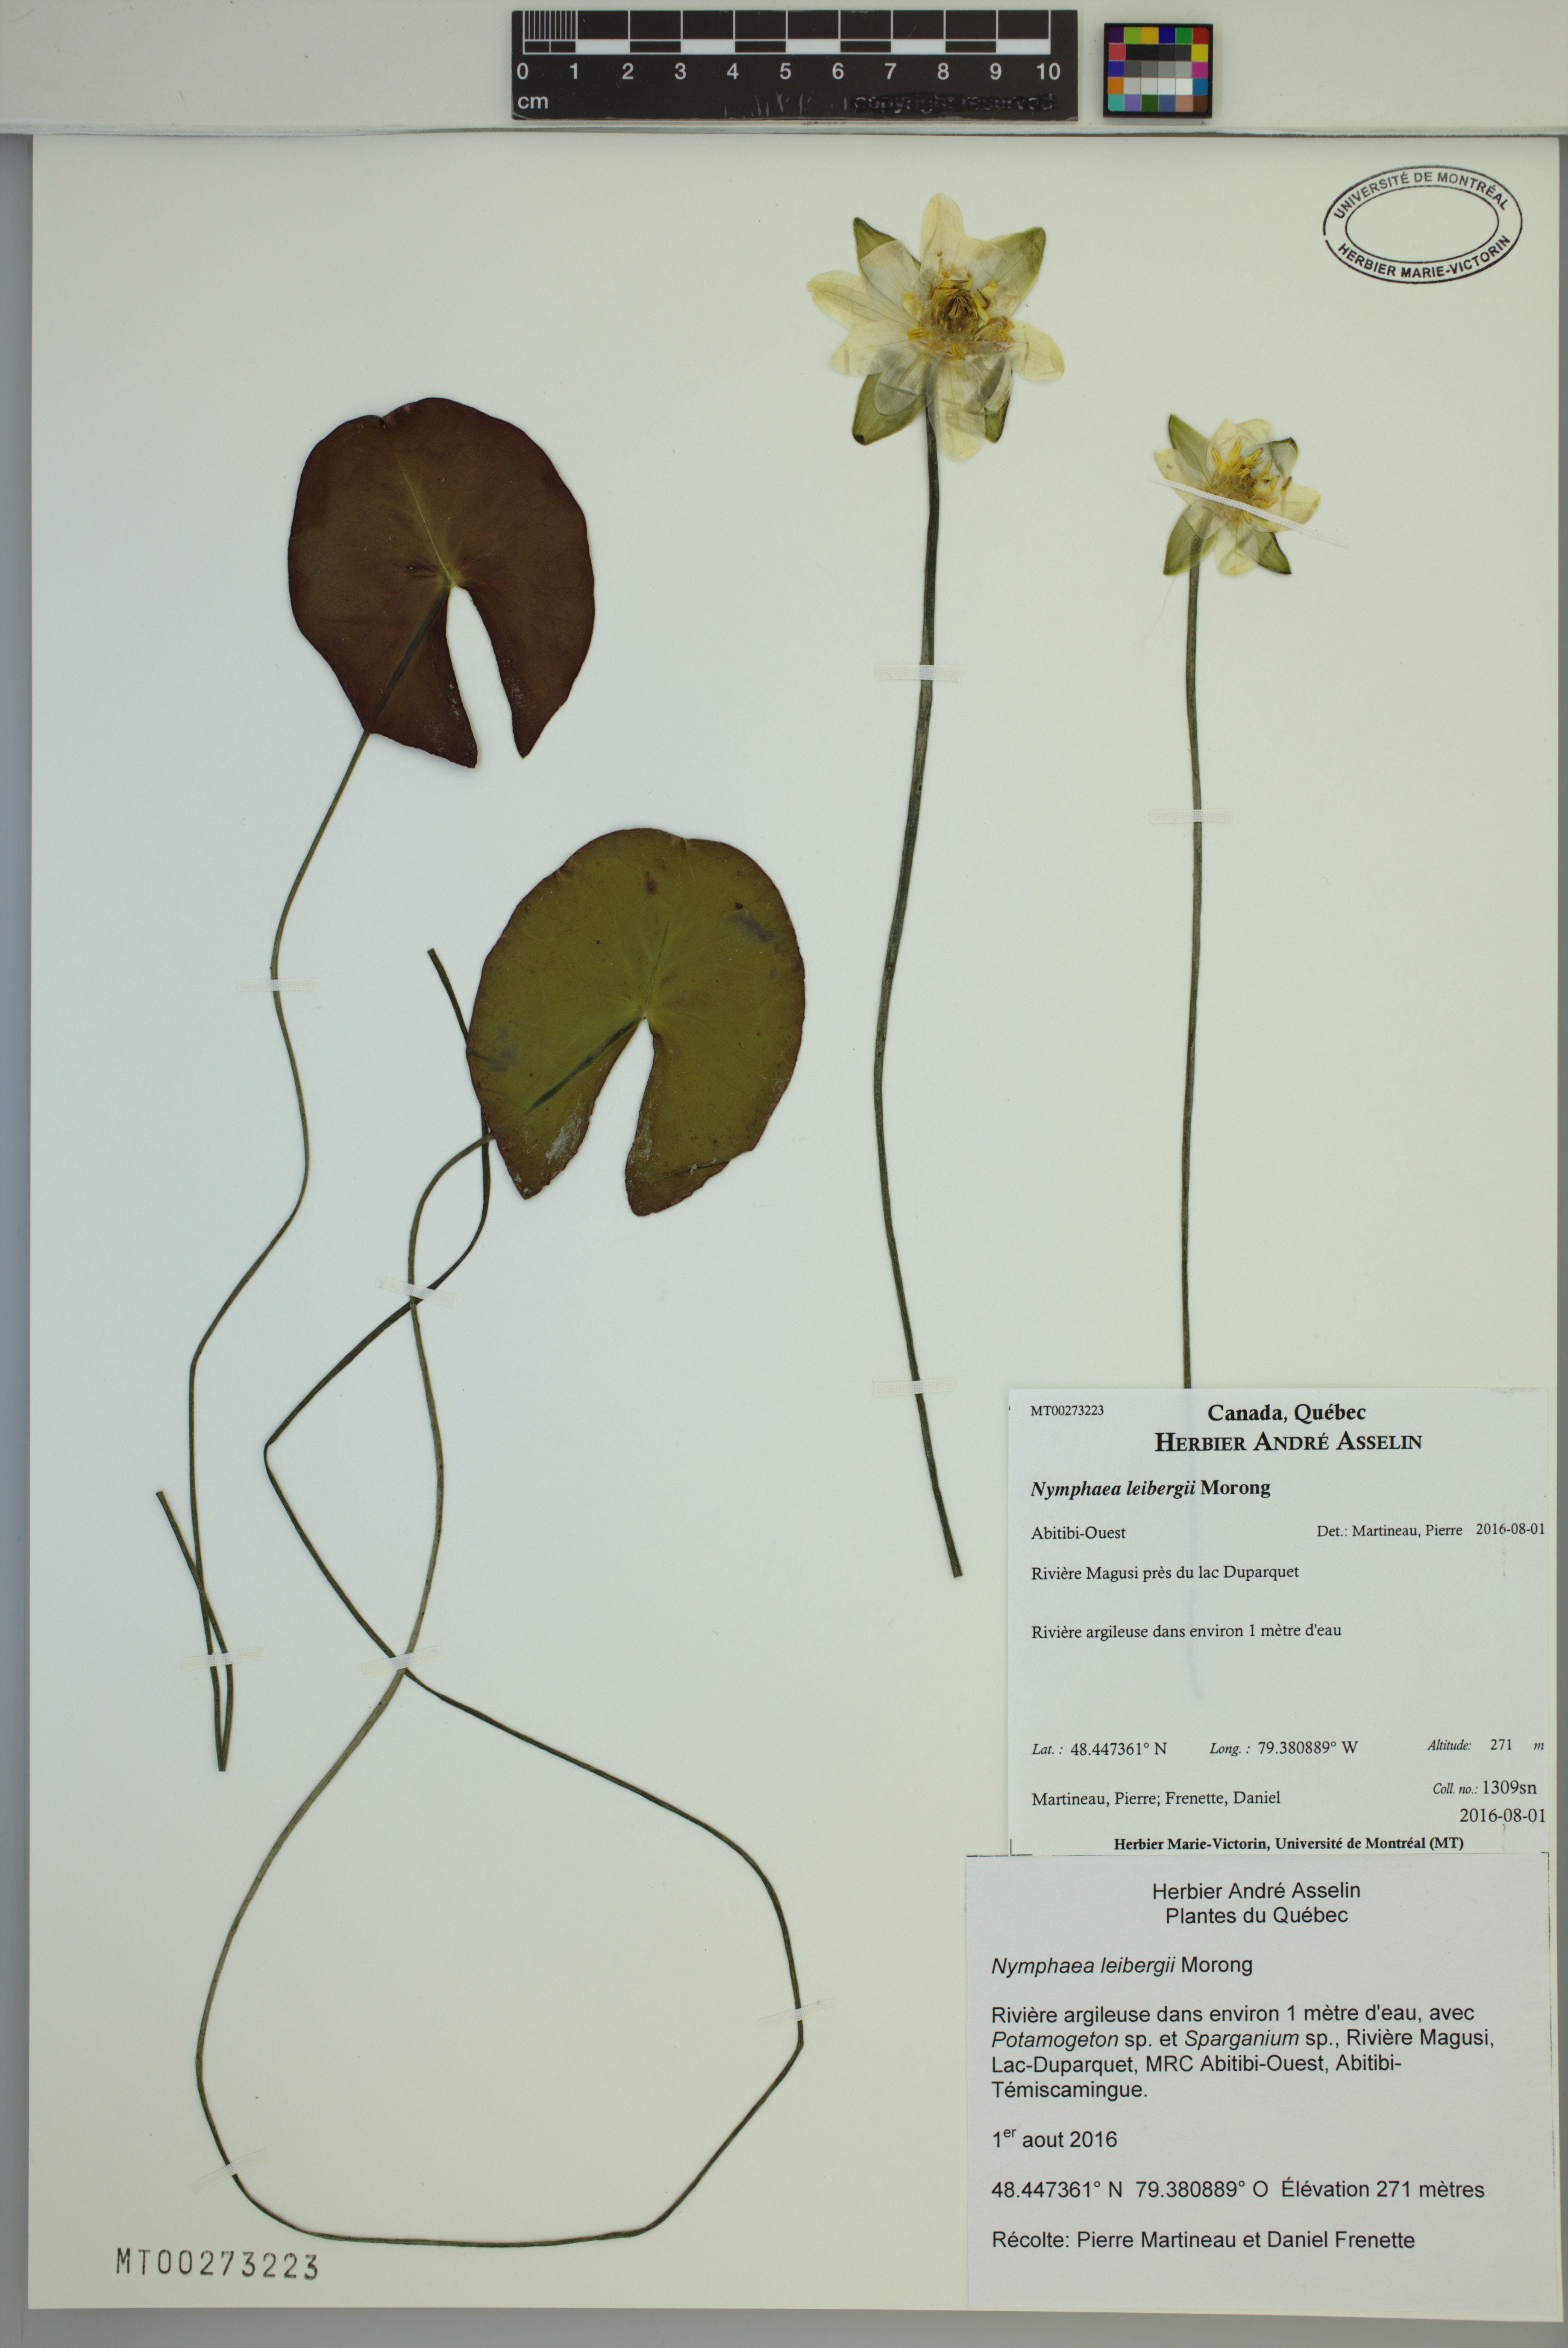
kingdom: Plantae
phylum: Tracheophyta
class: Magnoliopsida
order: Nymphaeales
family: Nymphaeaceae
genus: Nymphaea
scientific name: Nymphaea leibergii
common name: Dwarf water-lily
